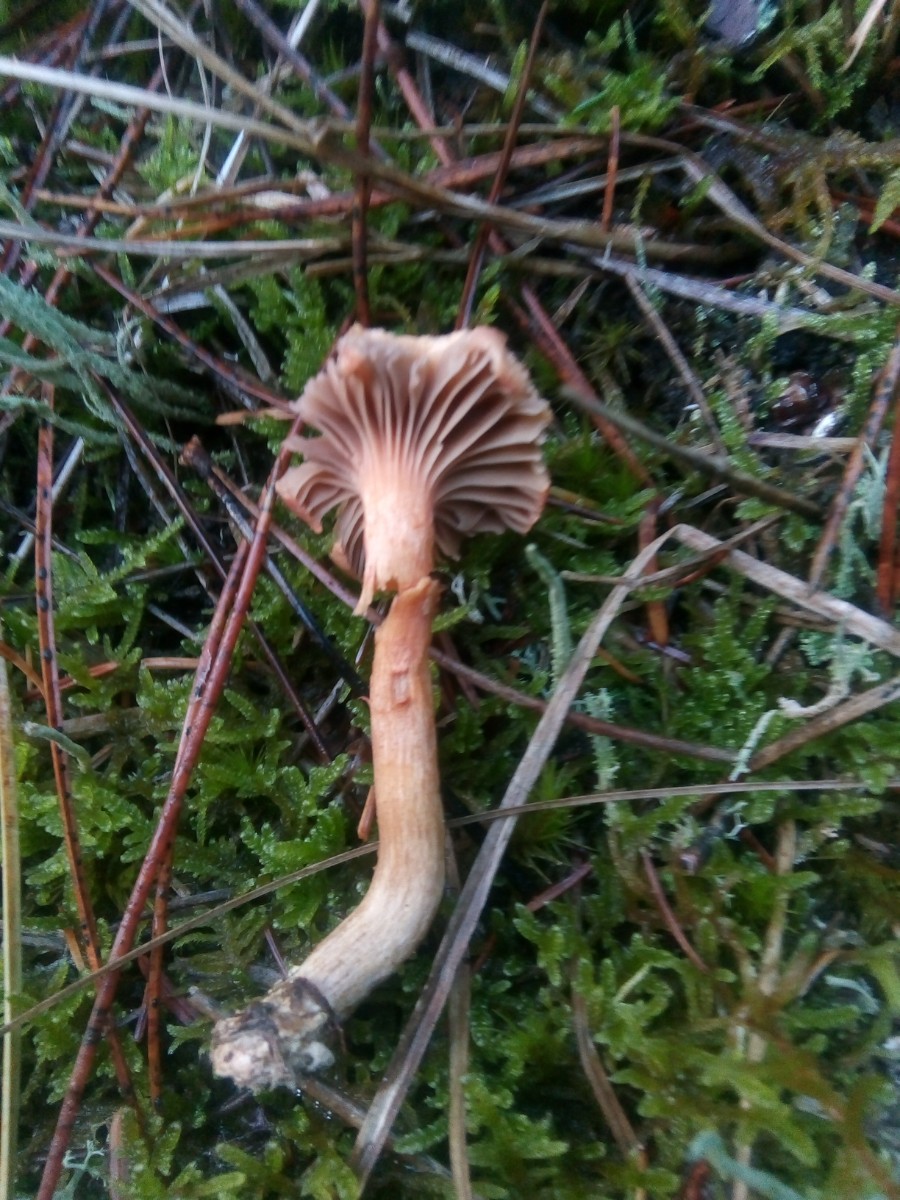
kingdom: Fungi
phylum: Basidiomycota
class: Agaricomycetes
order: Boletales
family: Gomphidiaceae
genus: Chroogomphus
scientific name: Chroogomphus rutilus
